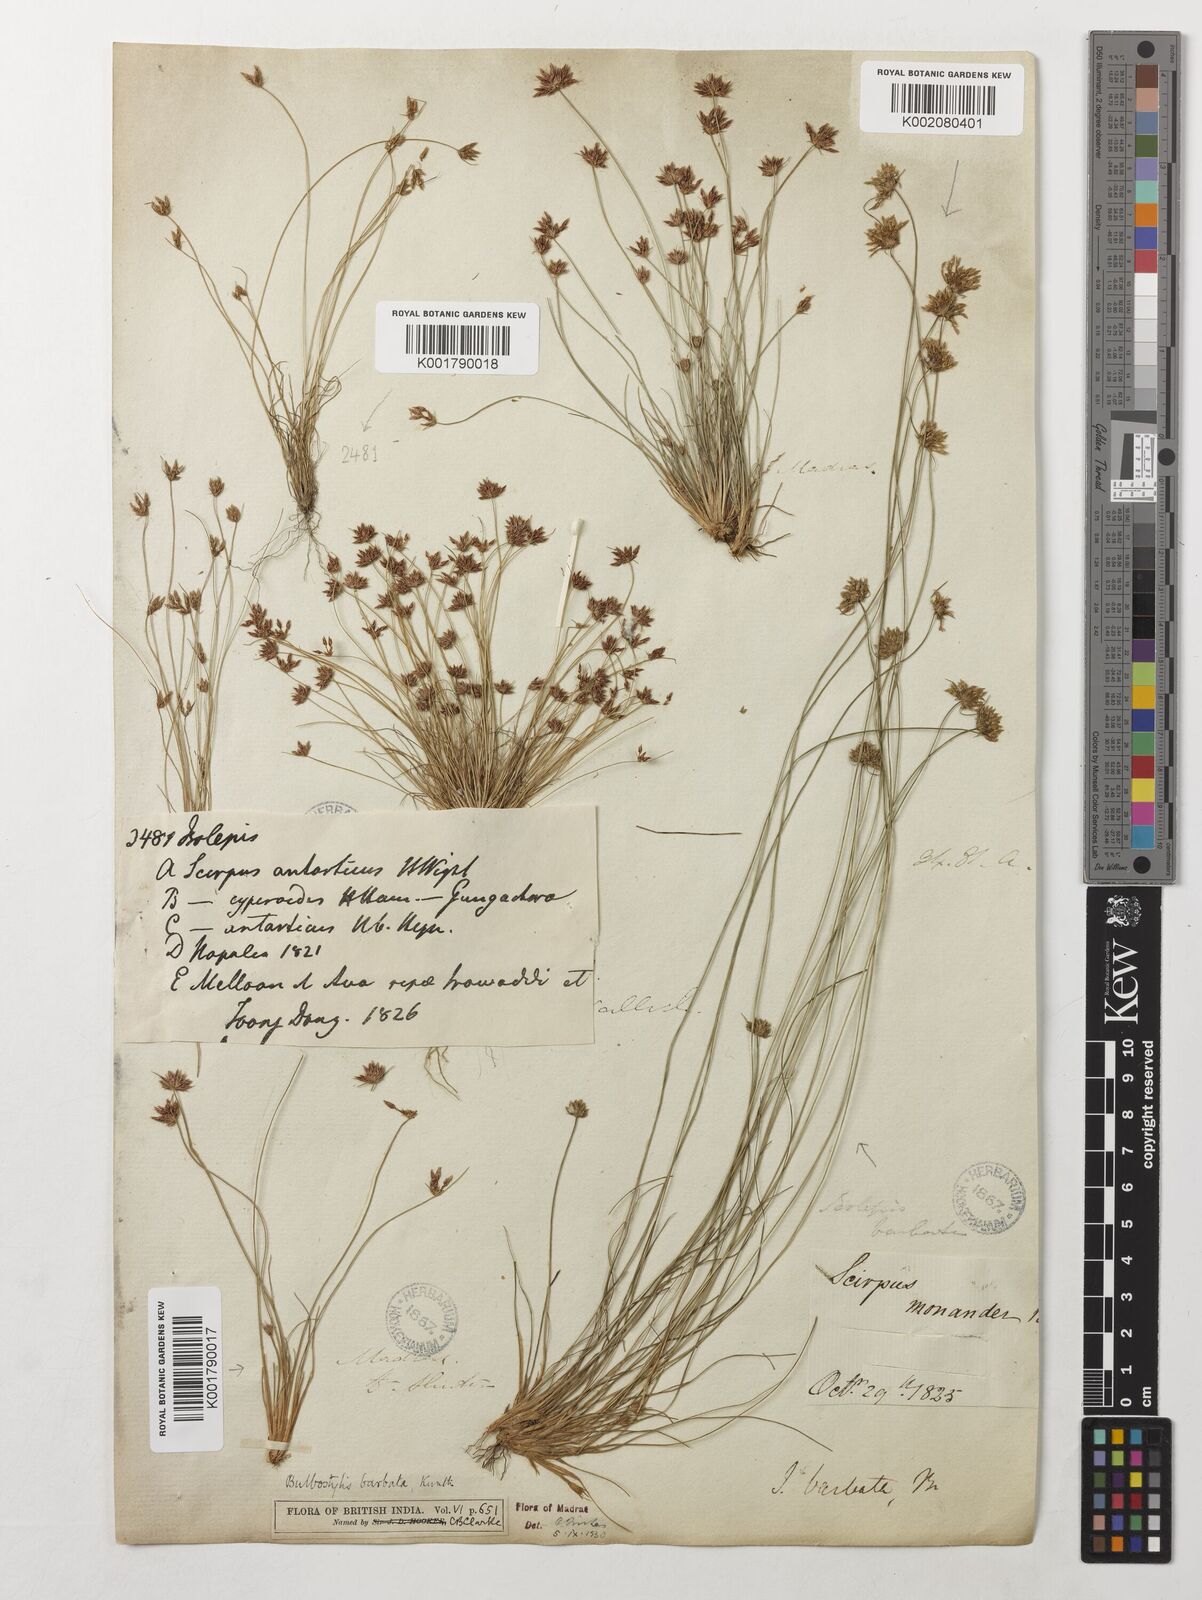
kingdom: Plantae
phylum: Tracheophyta
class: Liliopsida
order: Poales
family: Cyperaceae
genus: Bulbostylis
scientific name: Bulbostylis barbata
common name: Watergrass
